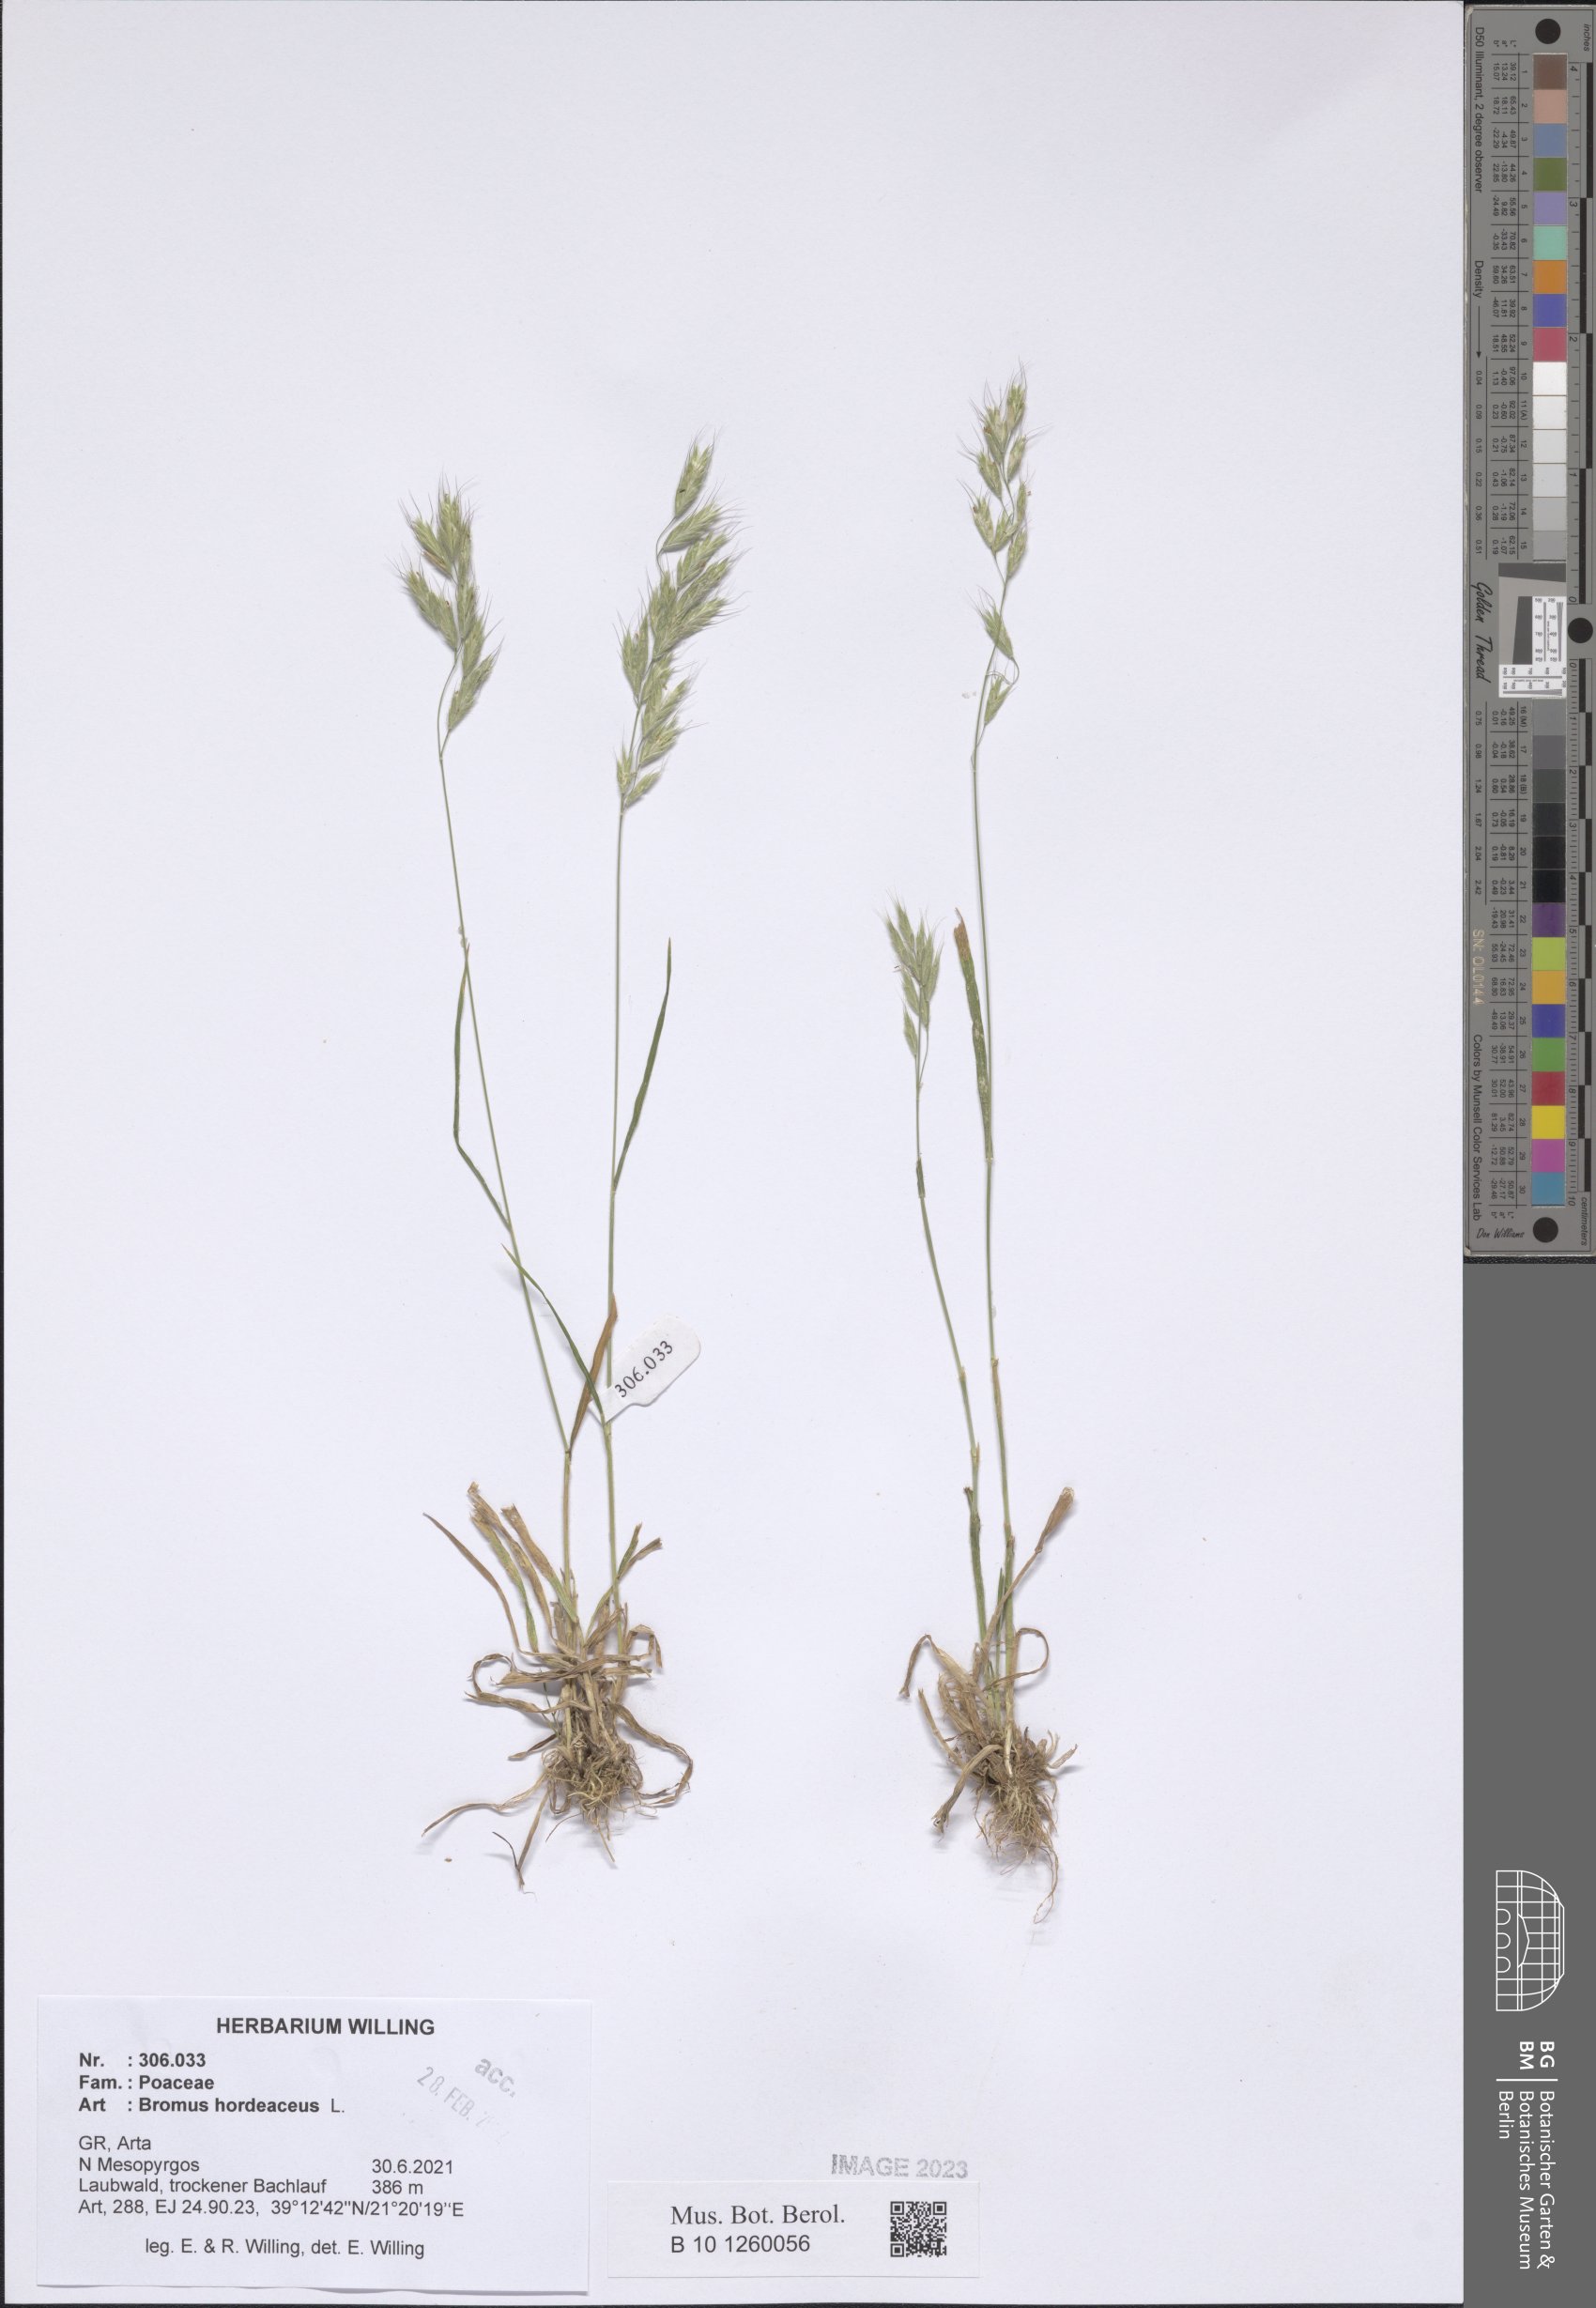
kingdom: Plantae
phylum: Tracheophyta
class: Liliopsida
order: Poales
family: Poaceae
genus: Bromus
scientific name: Bromus hordeaceus
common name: Soft brome
